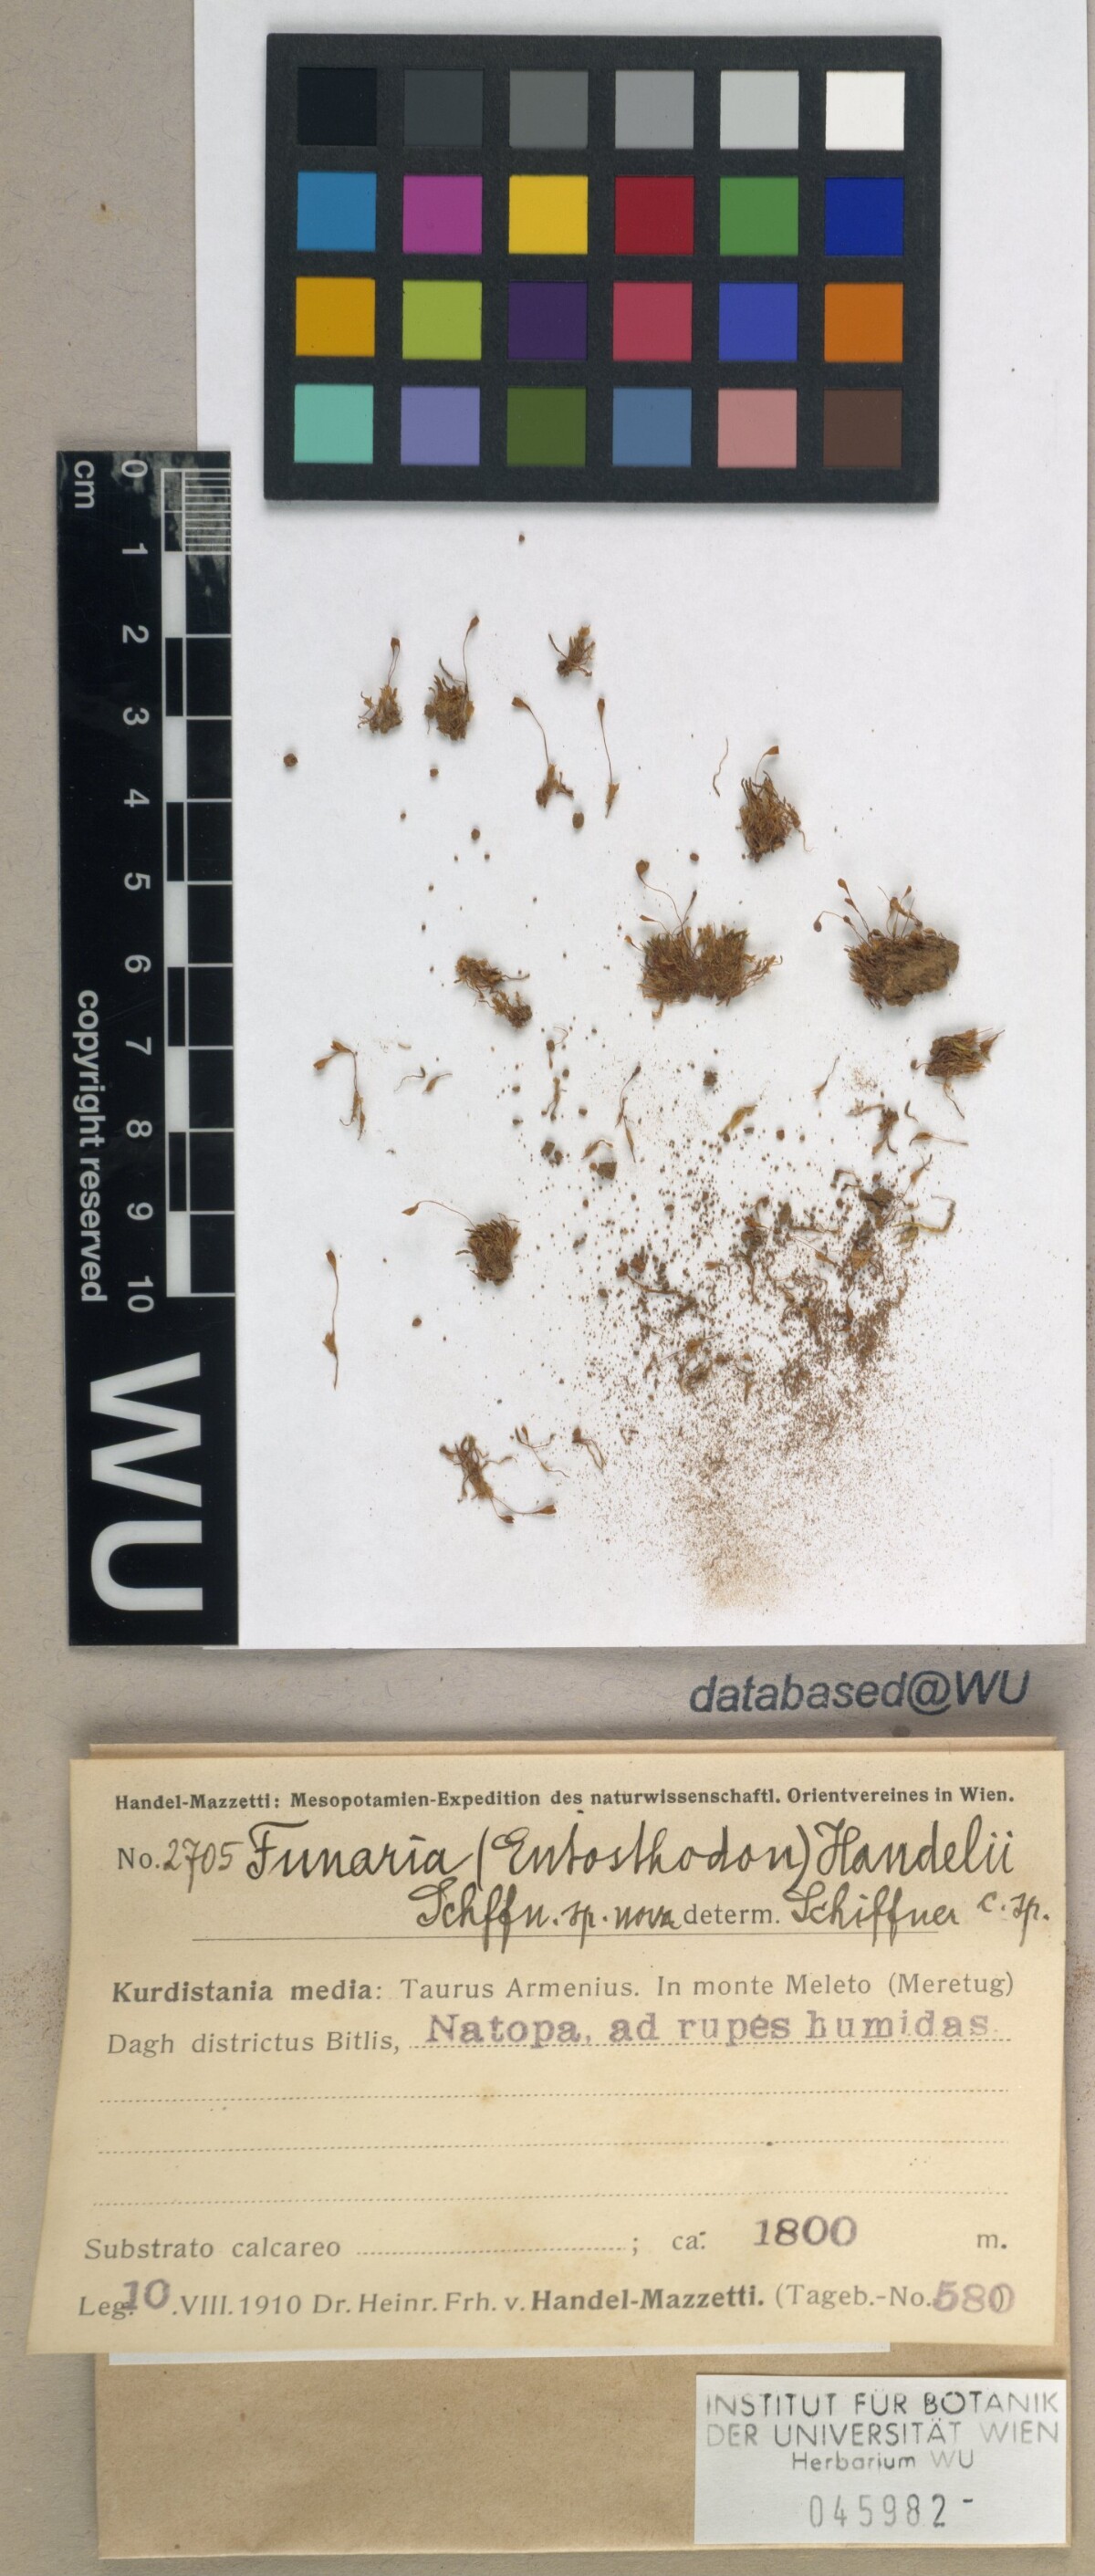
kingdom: Plantae
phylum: Bryophyta
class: Bryopsida
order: Funariales
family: Funariaceae
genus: Entosthodon
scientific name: Entosthodon handelii
